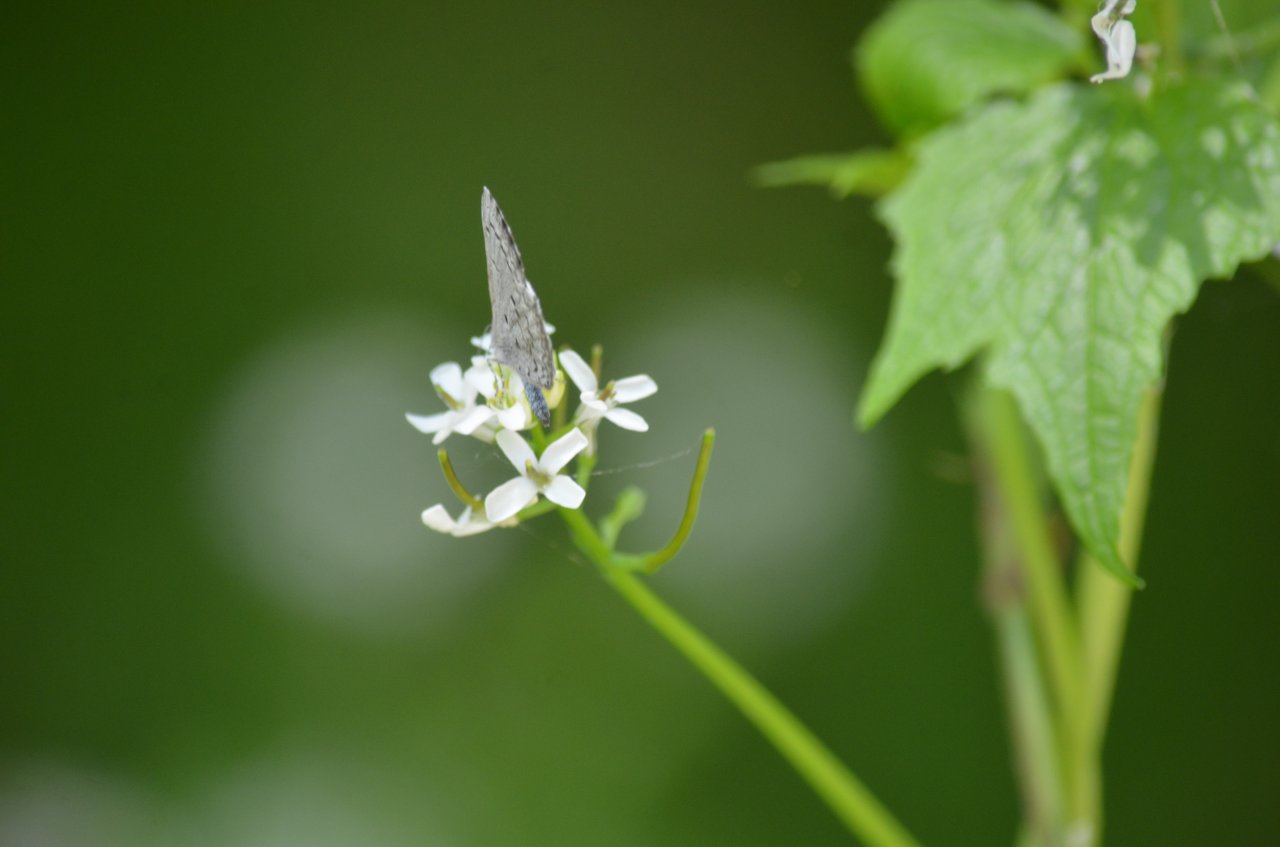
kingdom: Animalia
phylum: Arthropoda
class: Insecta
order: Lepidoptera
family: Lycaenidae
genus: Celastrina
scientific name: Celastrina
